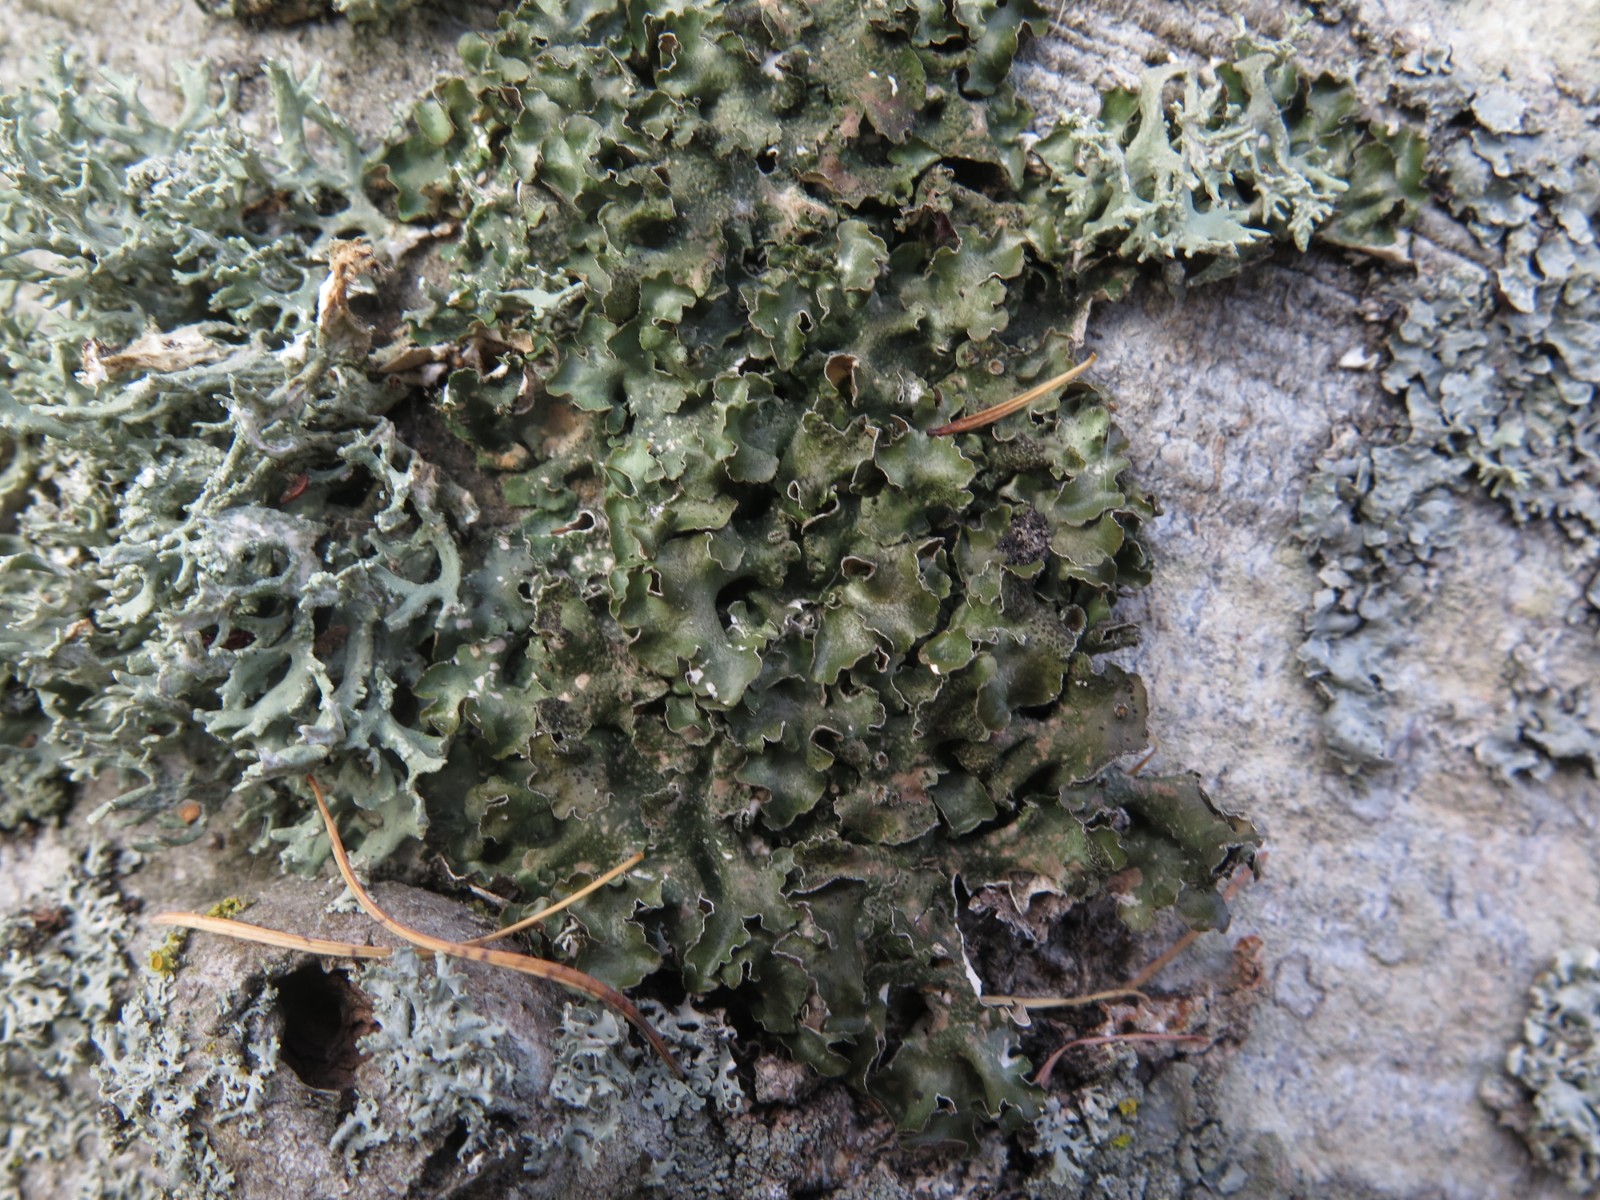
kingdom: Fungi
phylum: Ascomycota
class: Lecanoromycetes
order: Lecanorales
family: Parmeliaceae
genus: Pleurosticta
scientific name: Pleurosticta acetabulum
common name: stor skållav
